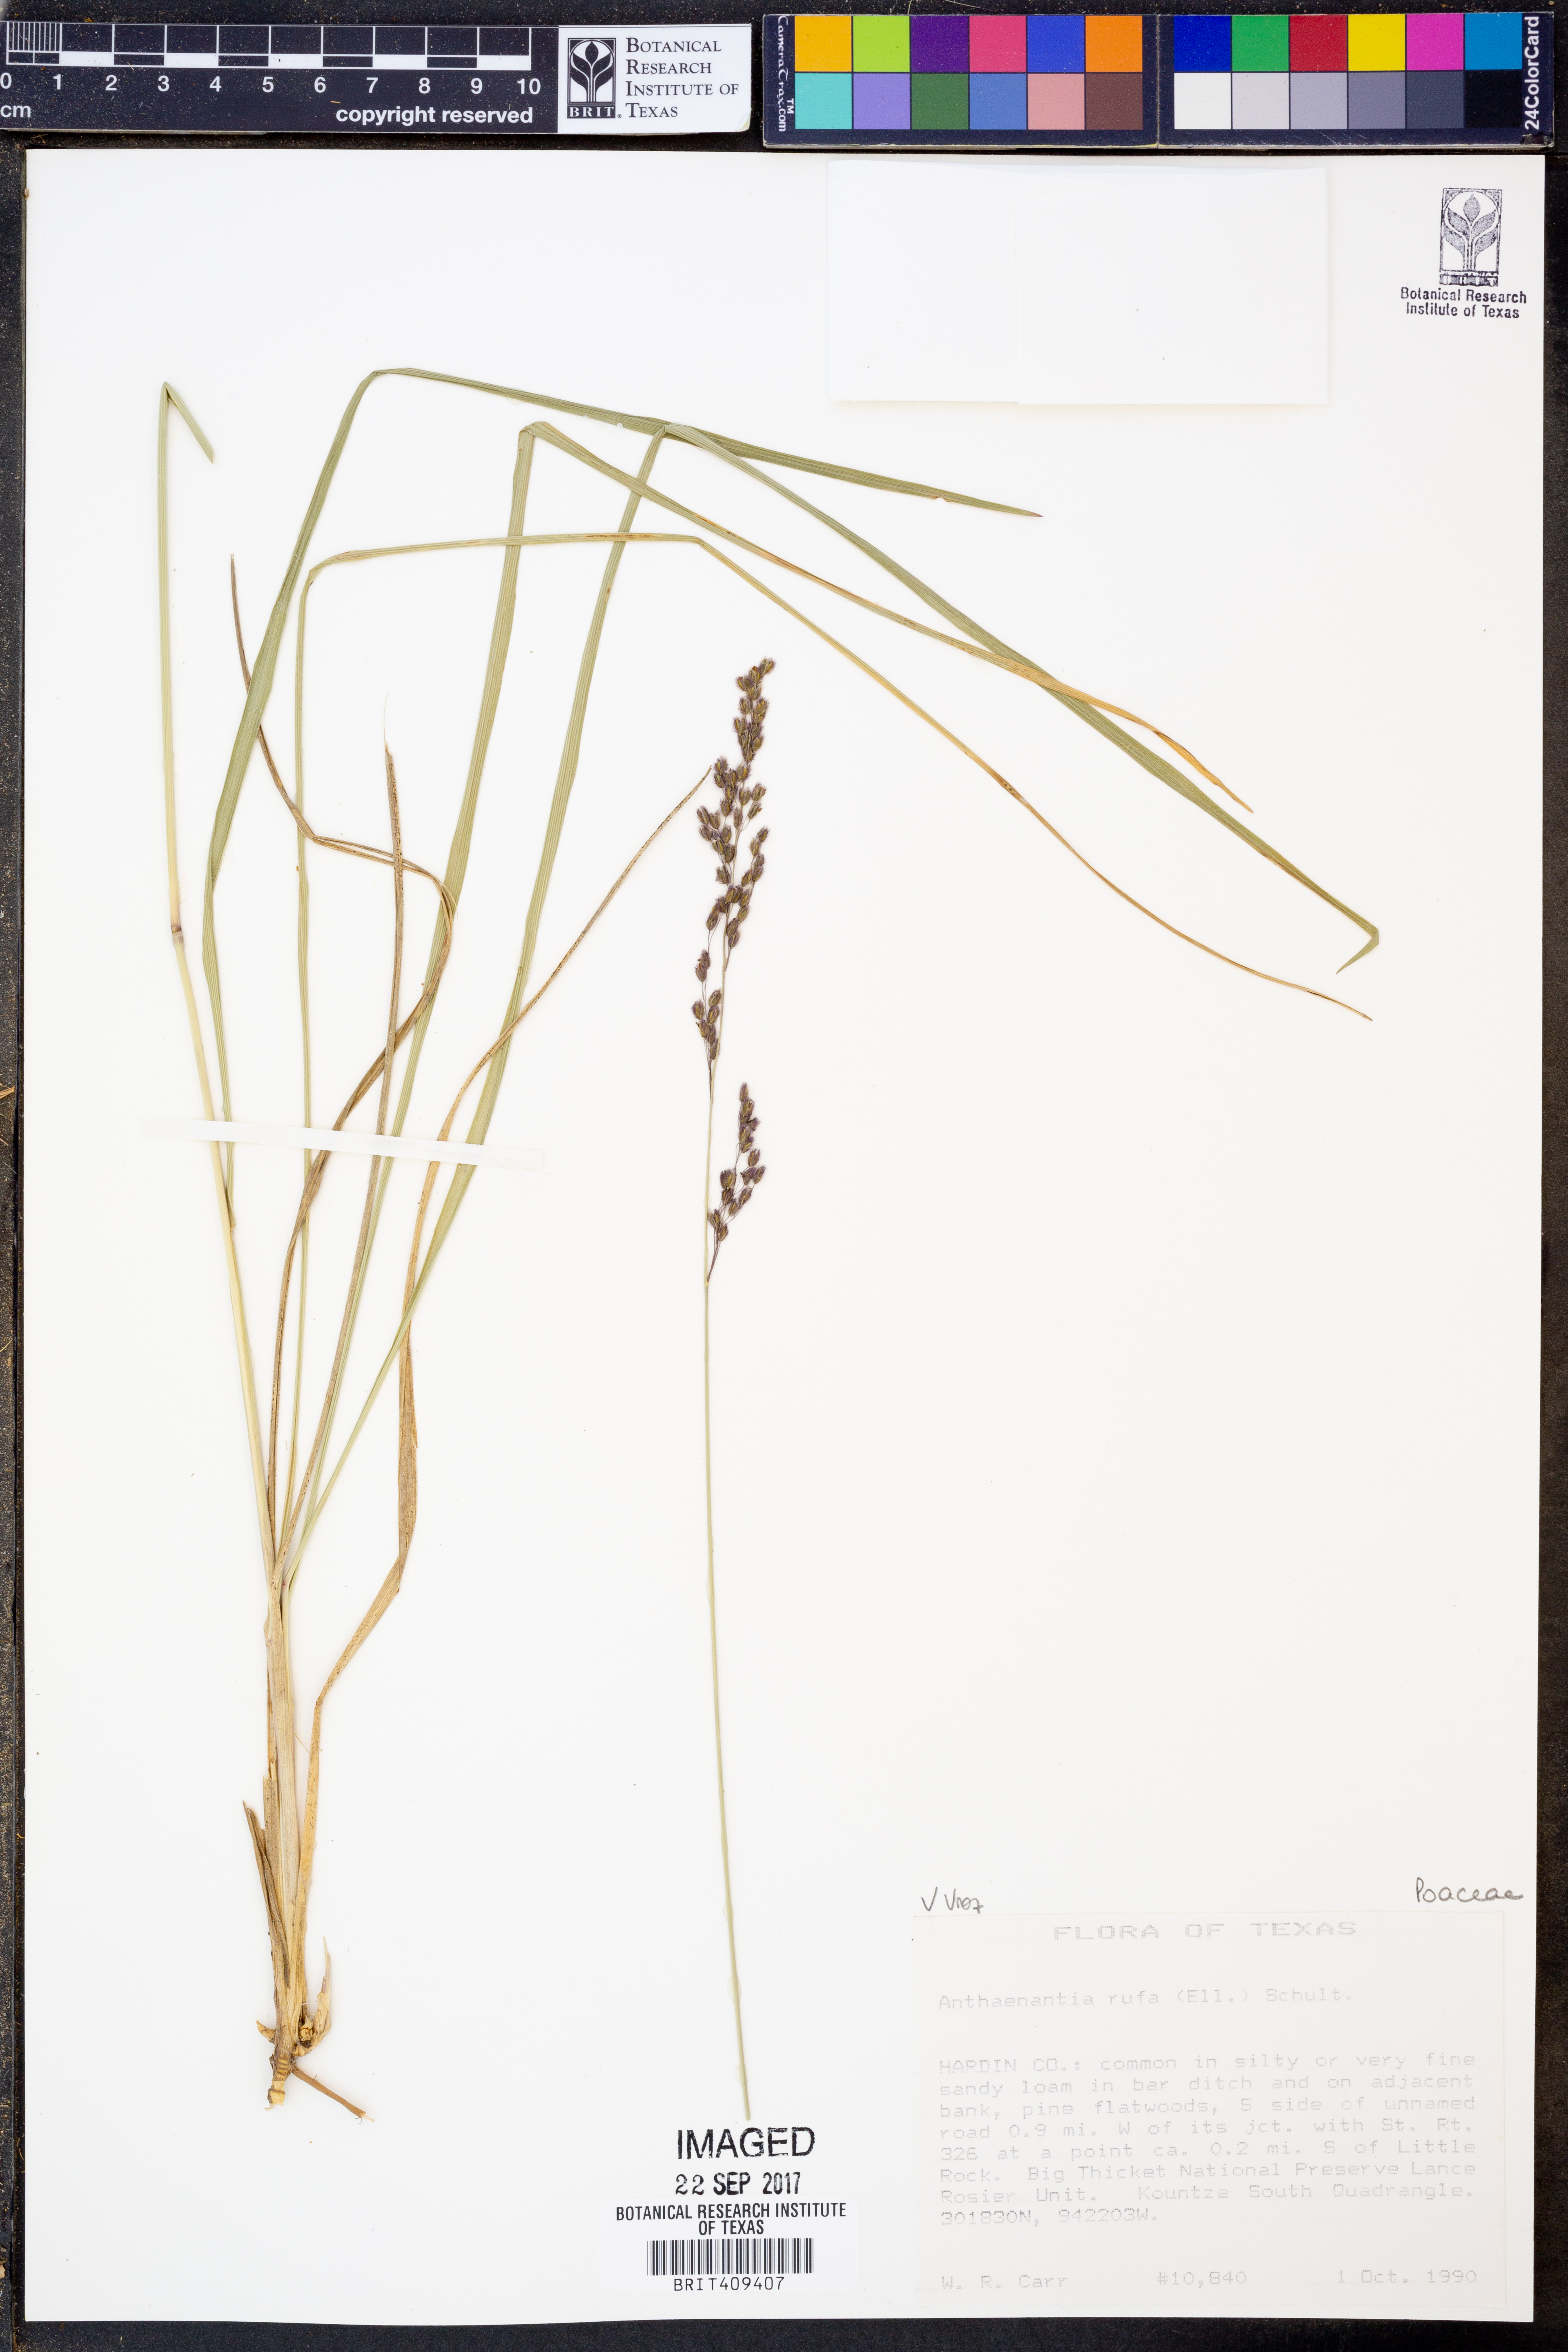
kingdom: Plantae
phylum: Tracheophyta
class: Liliopsida
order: Poales
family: Poaceae
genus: Anthenantia
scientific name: Anthenantia rufa
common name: Purple silkyscale
